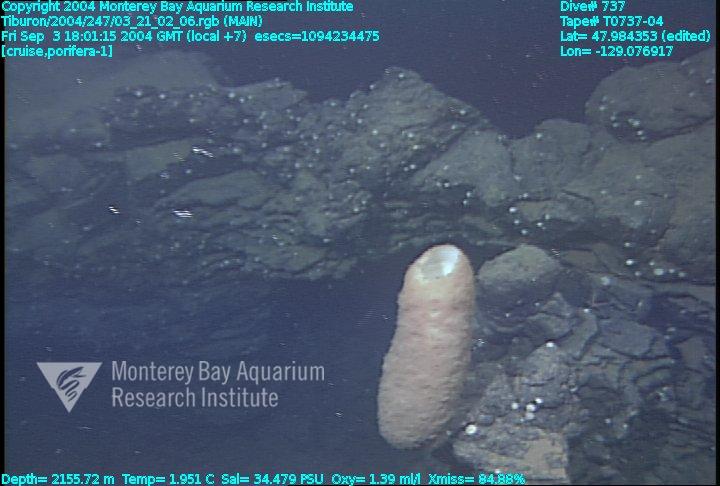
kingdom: Animalia
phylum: Porifera
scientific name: Porifera
